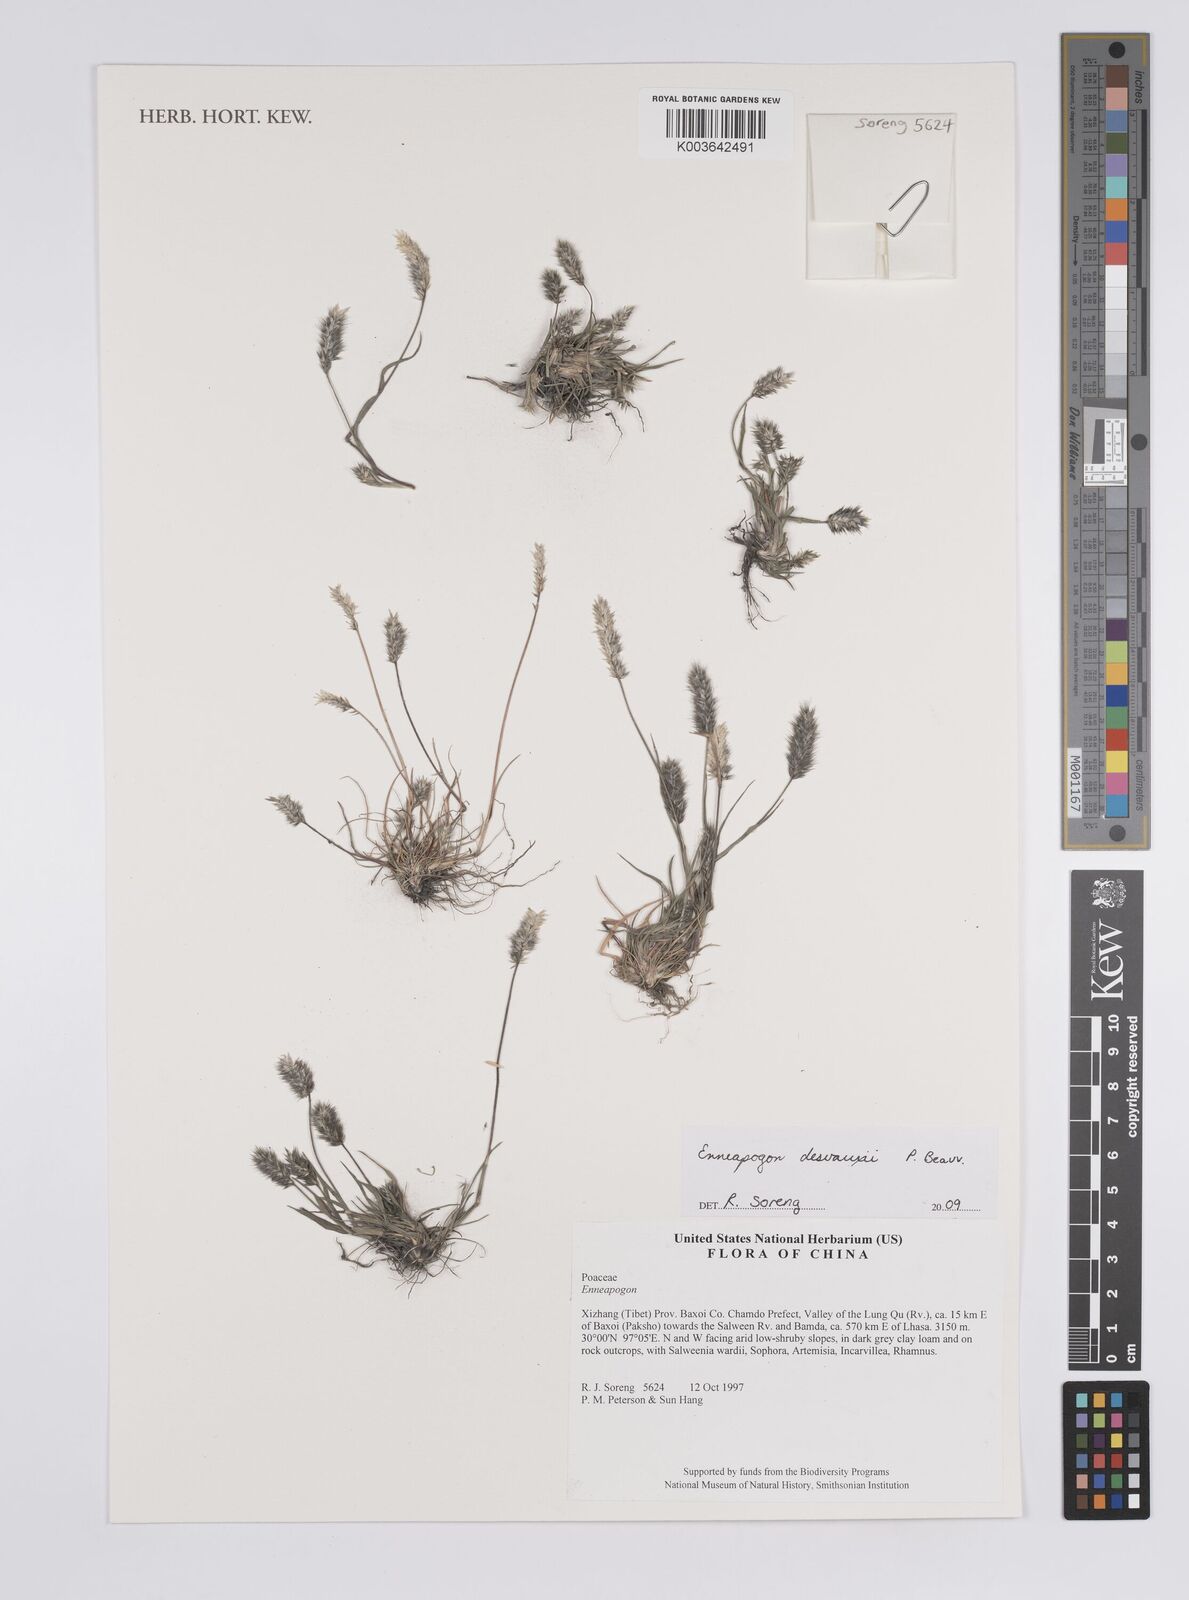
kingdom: Plantae
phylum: Tracheophyta
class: Liliopsida
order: Poales
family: Poaceae
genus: Enneapogon
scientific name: Enneapogon desvauxii
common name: Feather pappus grass
